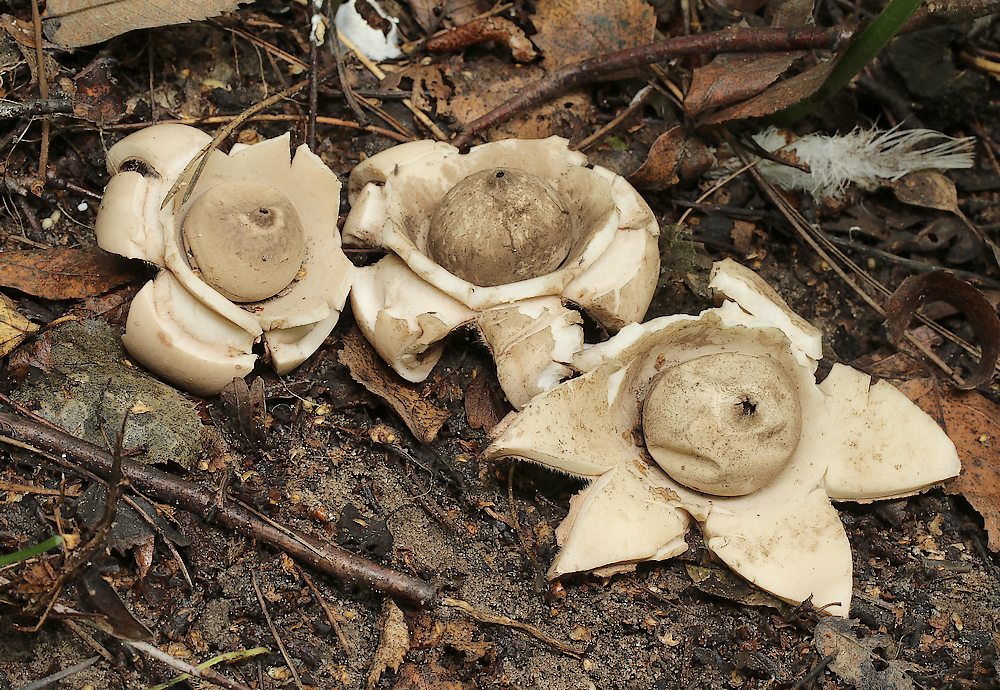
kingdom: Fungi
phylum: Basidiomycota
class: Agaricomycetes
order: Geastrales
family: Geastraceae
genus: Geastrum
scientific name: Geastrum michelianum
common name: kødet stjernebold
